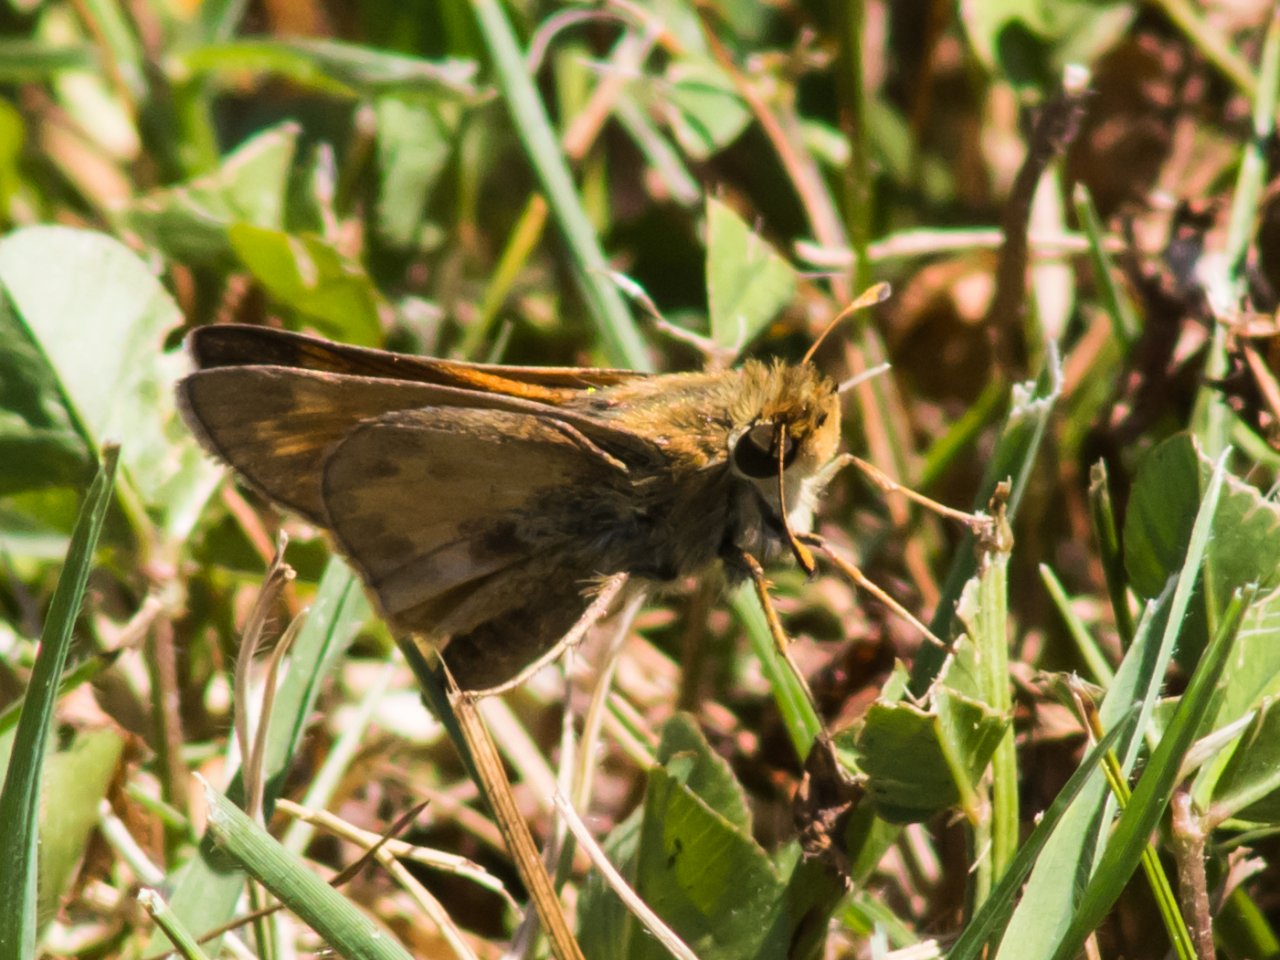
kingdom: Animalia
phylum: Arthropoda
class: Insecta
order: Lepidoptera
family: Hesperiidae
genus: Atalopedes
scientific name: Atalopedes campestris
